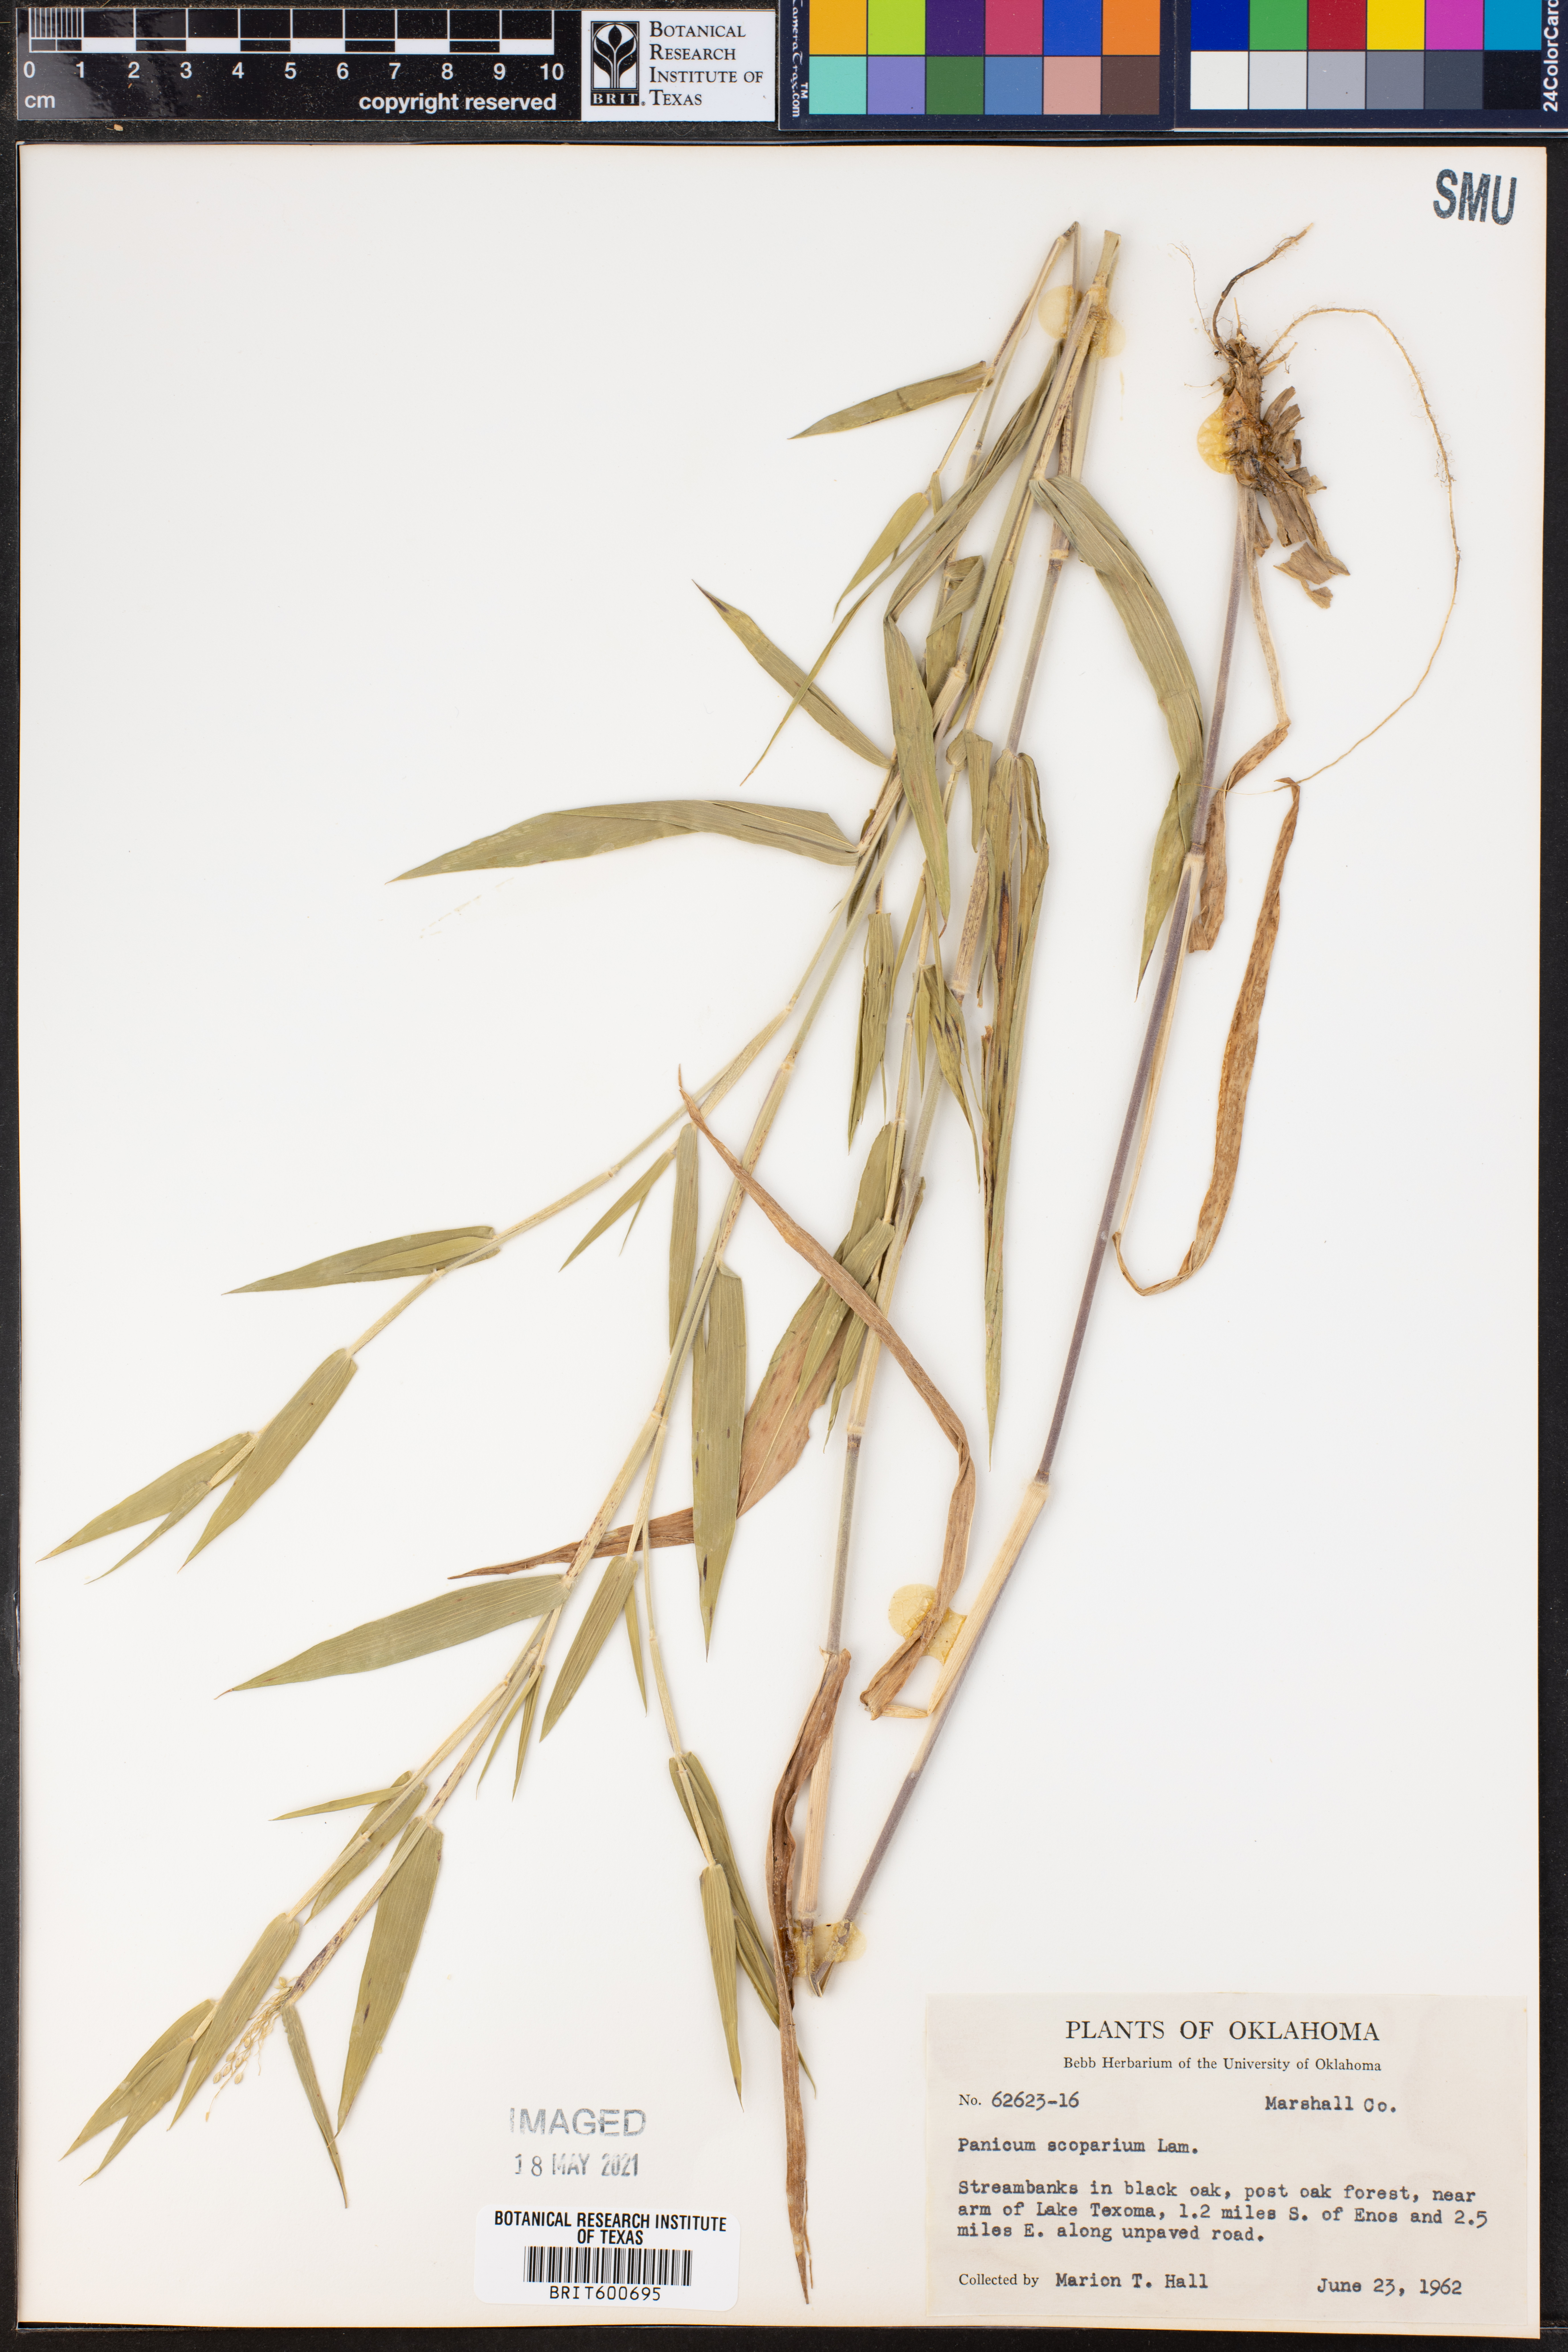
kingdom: Plantae
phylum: Tracheophyta
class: Liliopsida
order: Poales
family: Poaceae
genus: Dichanthelium
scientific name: Dichanthelium scribnerianum
